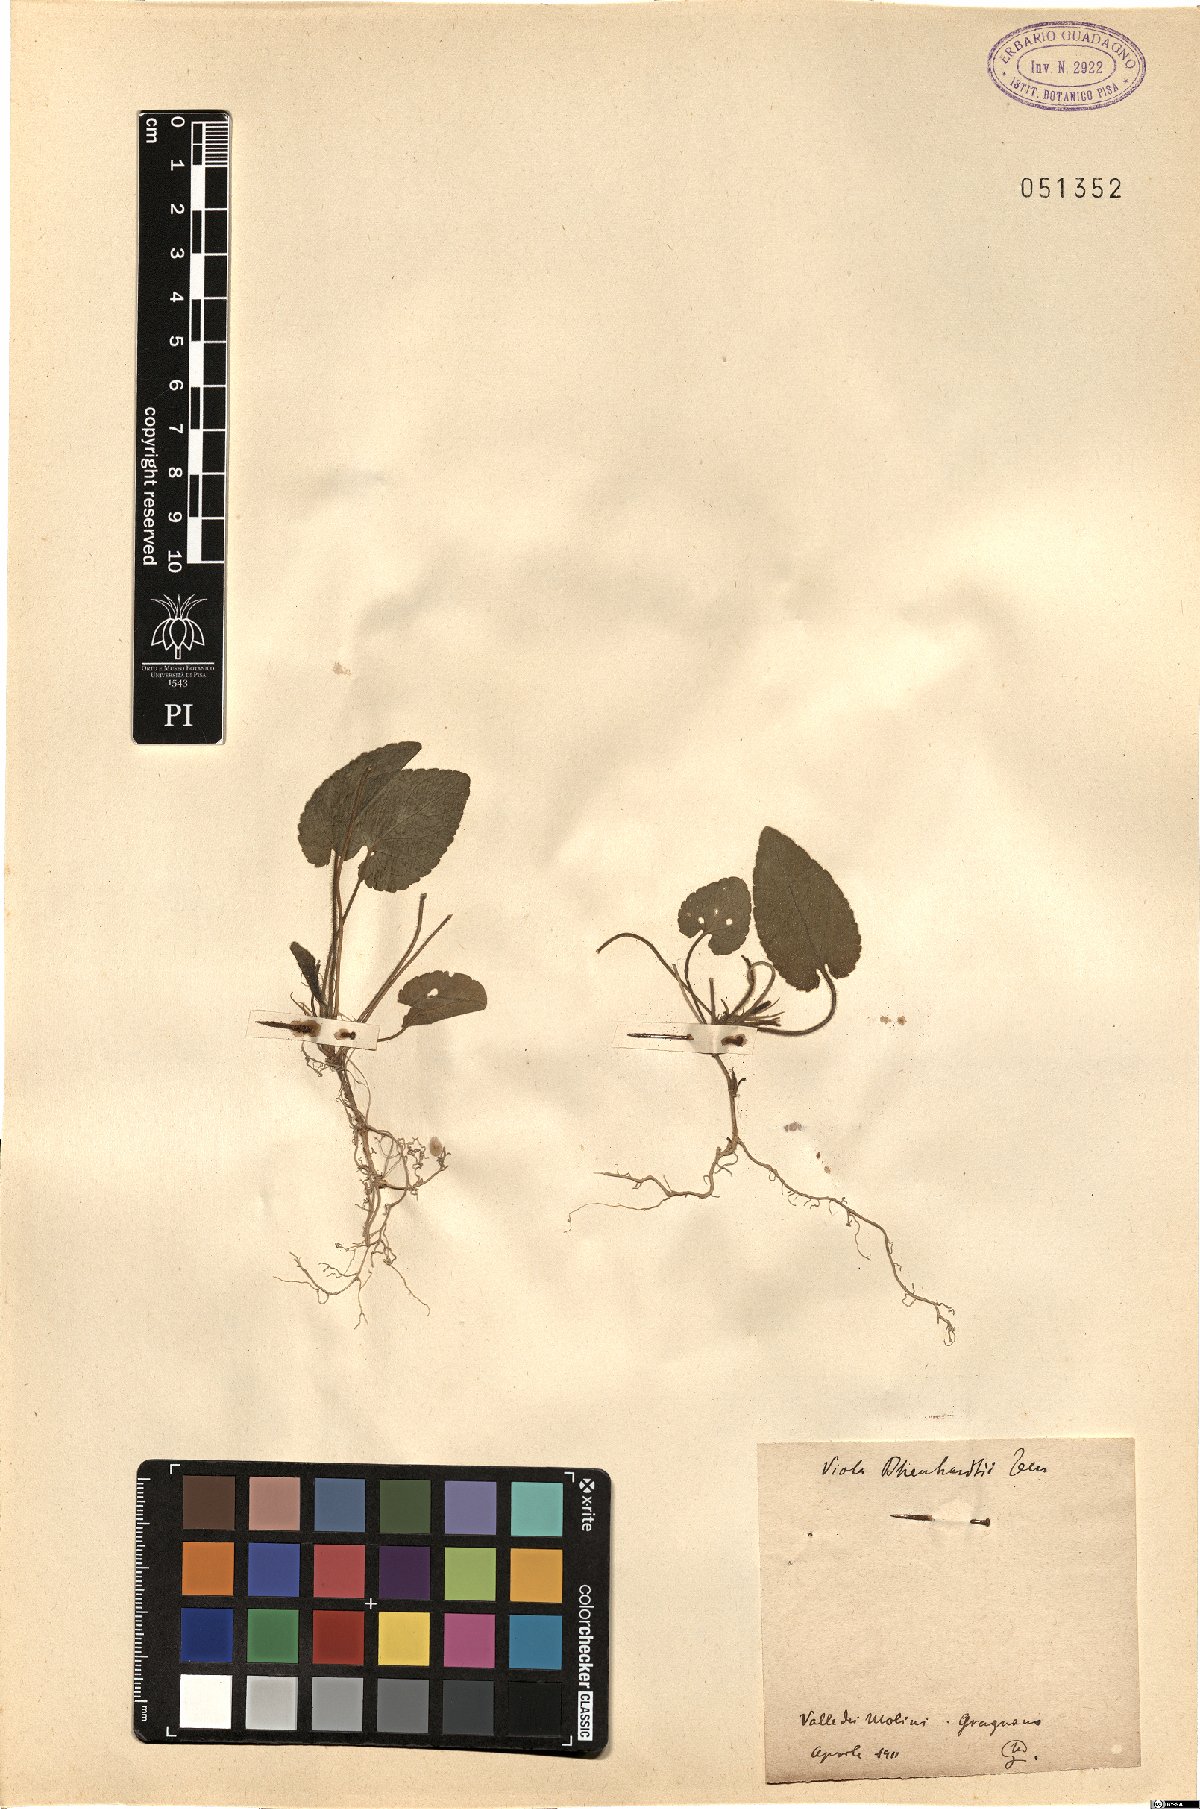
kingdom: Plantae
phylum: Tracheophyta
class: Magnoliopsida
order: Malpighiales
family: Violaceae
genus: Viola
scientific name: Viola alba
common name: White violet
